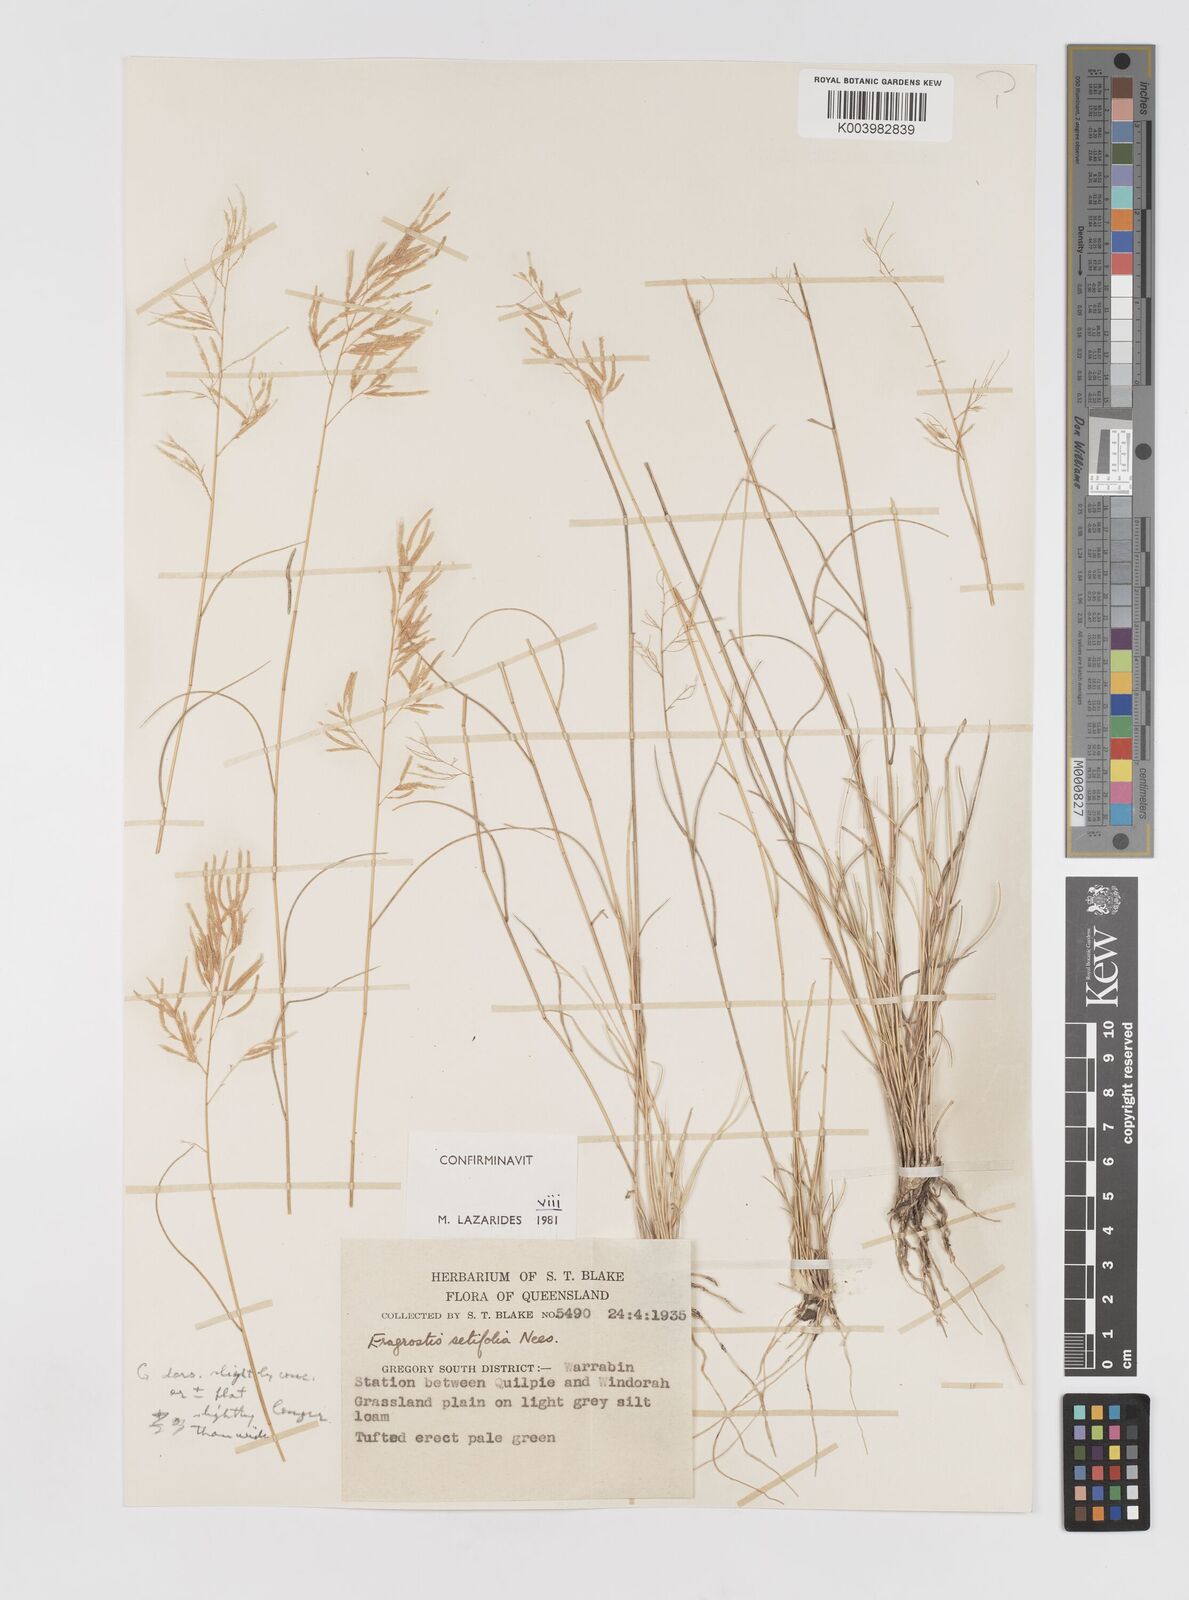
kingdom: Plantae
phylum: Tracheophyta
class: Liliopsida
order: Poales
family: Poaceae
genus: Eragrostis
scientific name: Eragrostis setifolia
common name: Bristleleaf lovegrass
